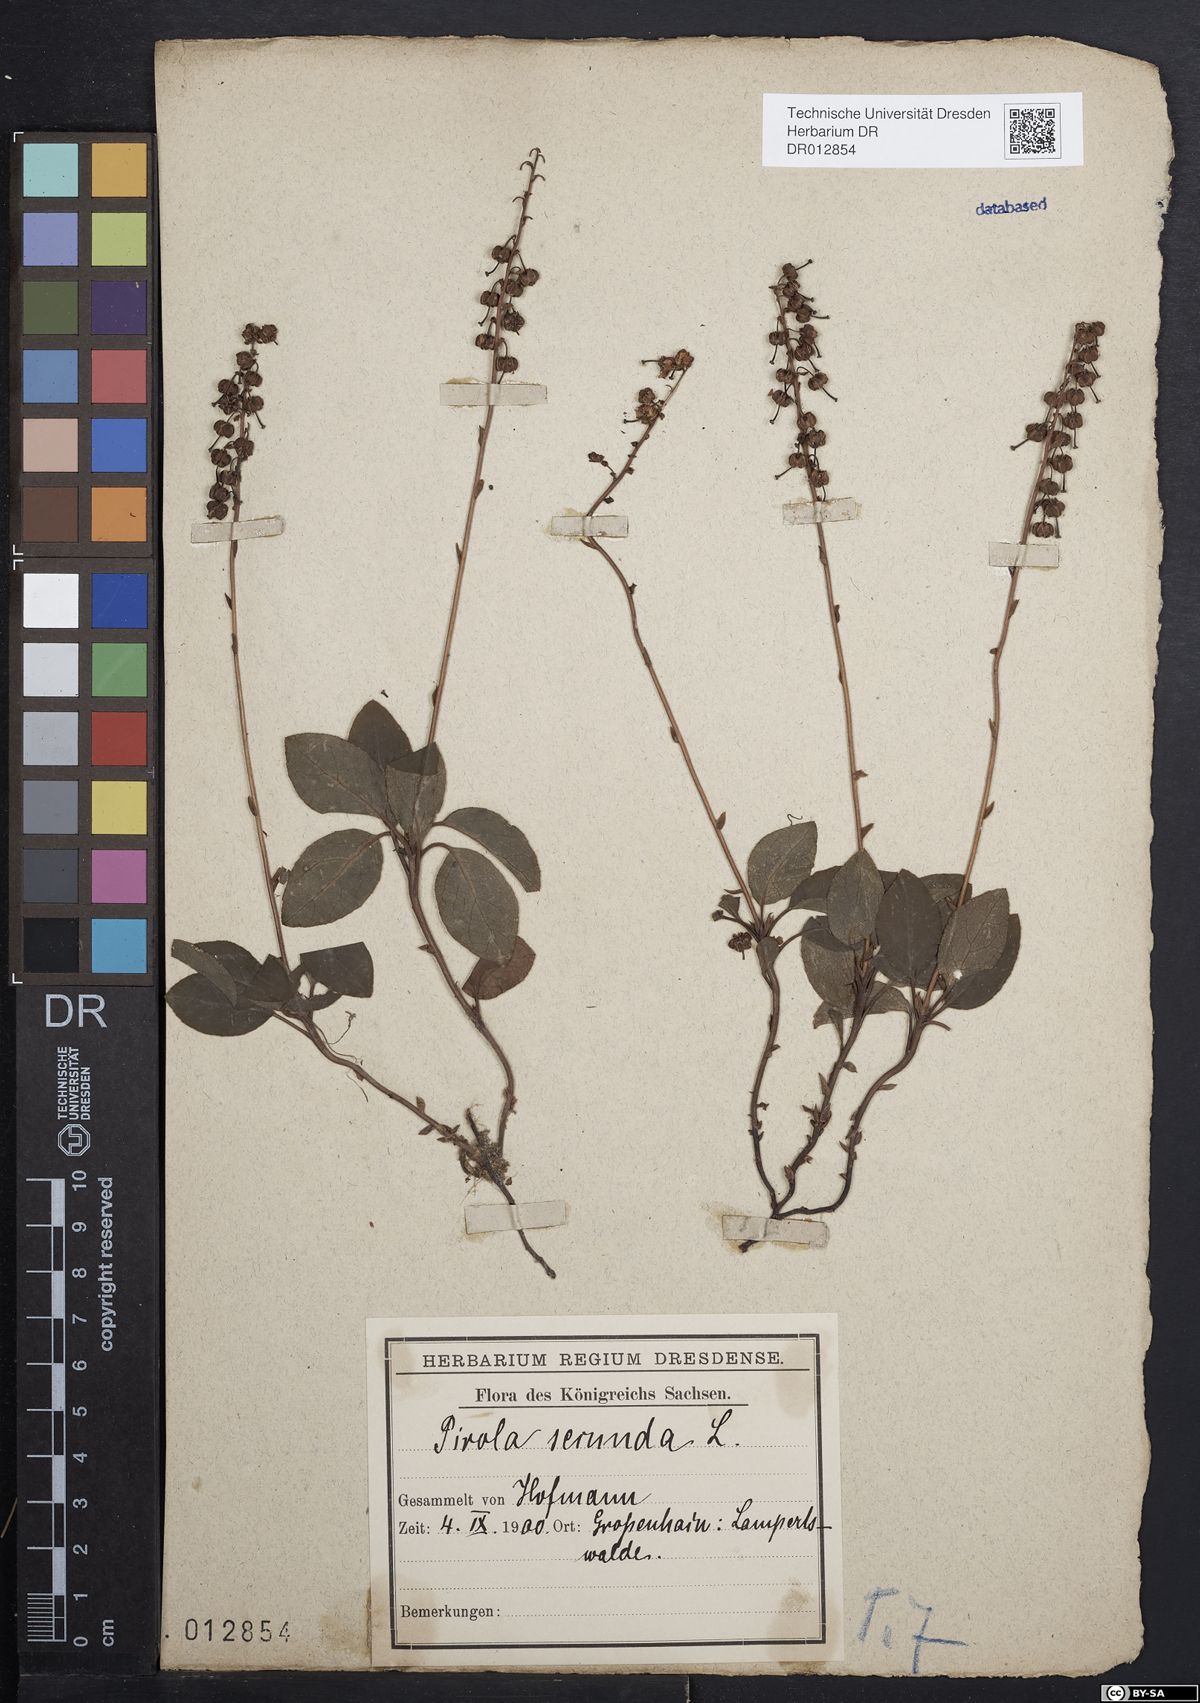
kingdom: Plantae
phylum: Tracheophyta
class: Magnoliopsida
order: Ericales
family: Ericaceae
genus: Orthilia
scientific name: Orthilia secunda
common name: One-sided orthilia
